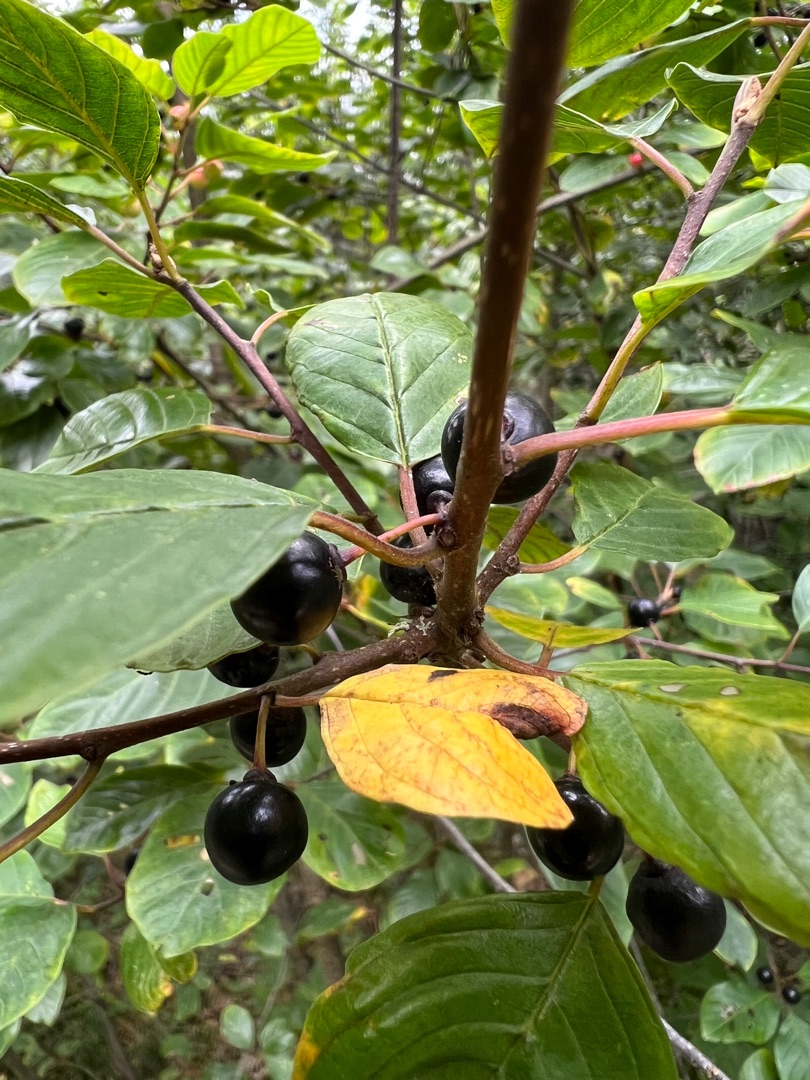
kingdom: Plantae
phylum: Tracheophyta
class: Magnoliopsida
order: Rosales
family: Rhamnaceae
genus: Frangula
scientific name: Frangula alnus
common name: Tørst
